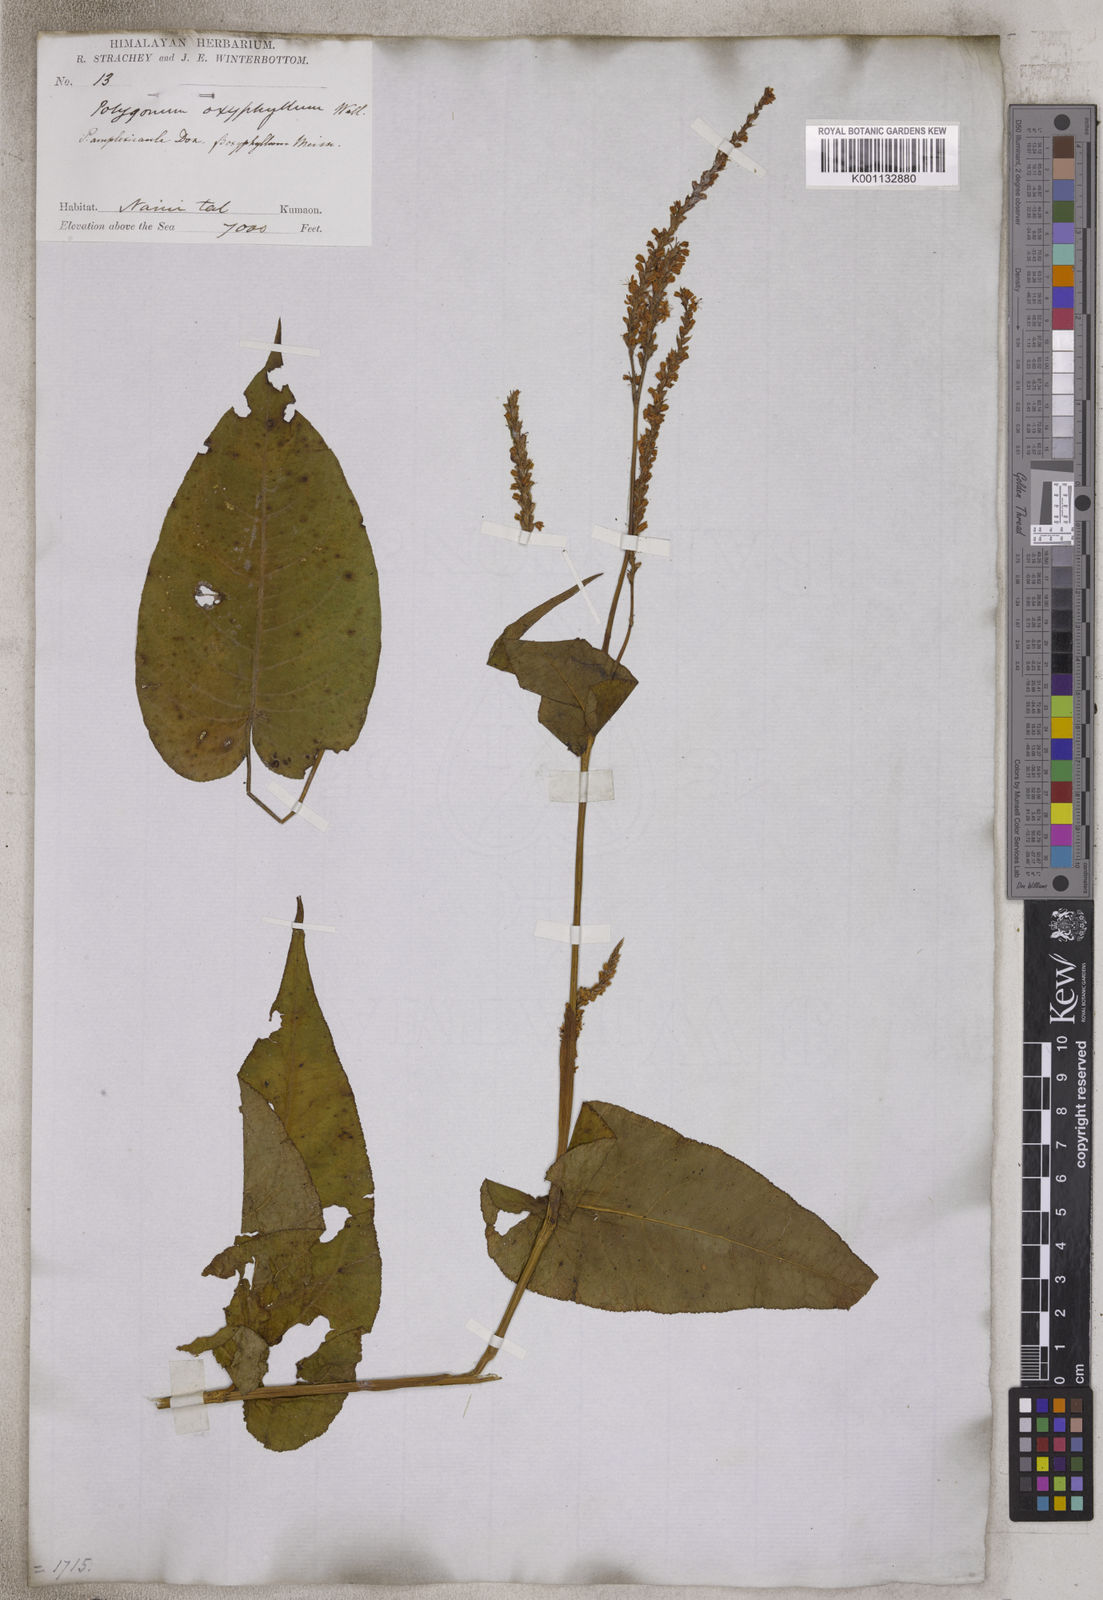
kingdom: Plantae
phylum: Tracheophyta
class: Magnoliopsida
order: Caryophyllales
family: Polygonaceae
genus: Polygonum
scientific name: Polygonum
